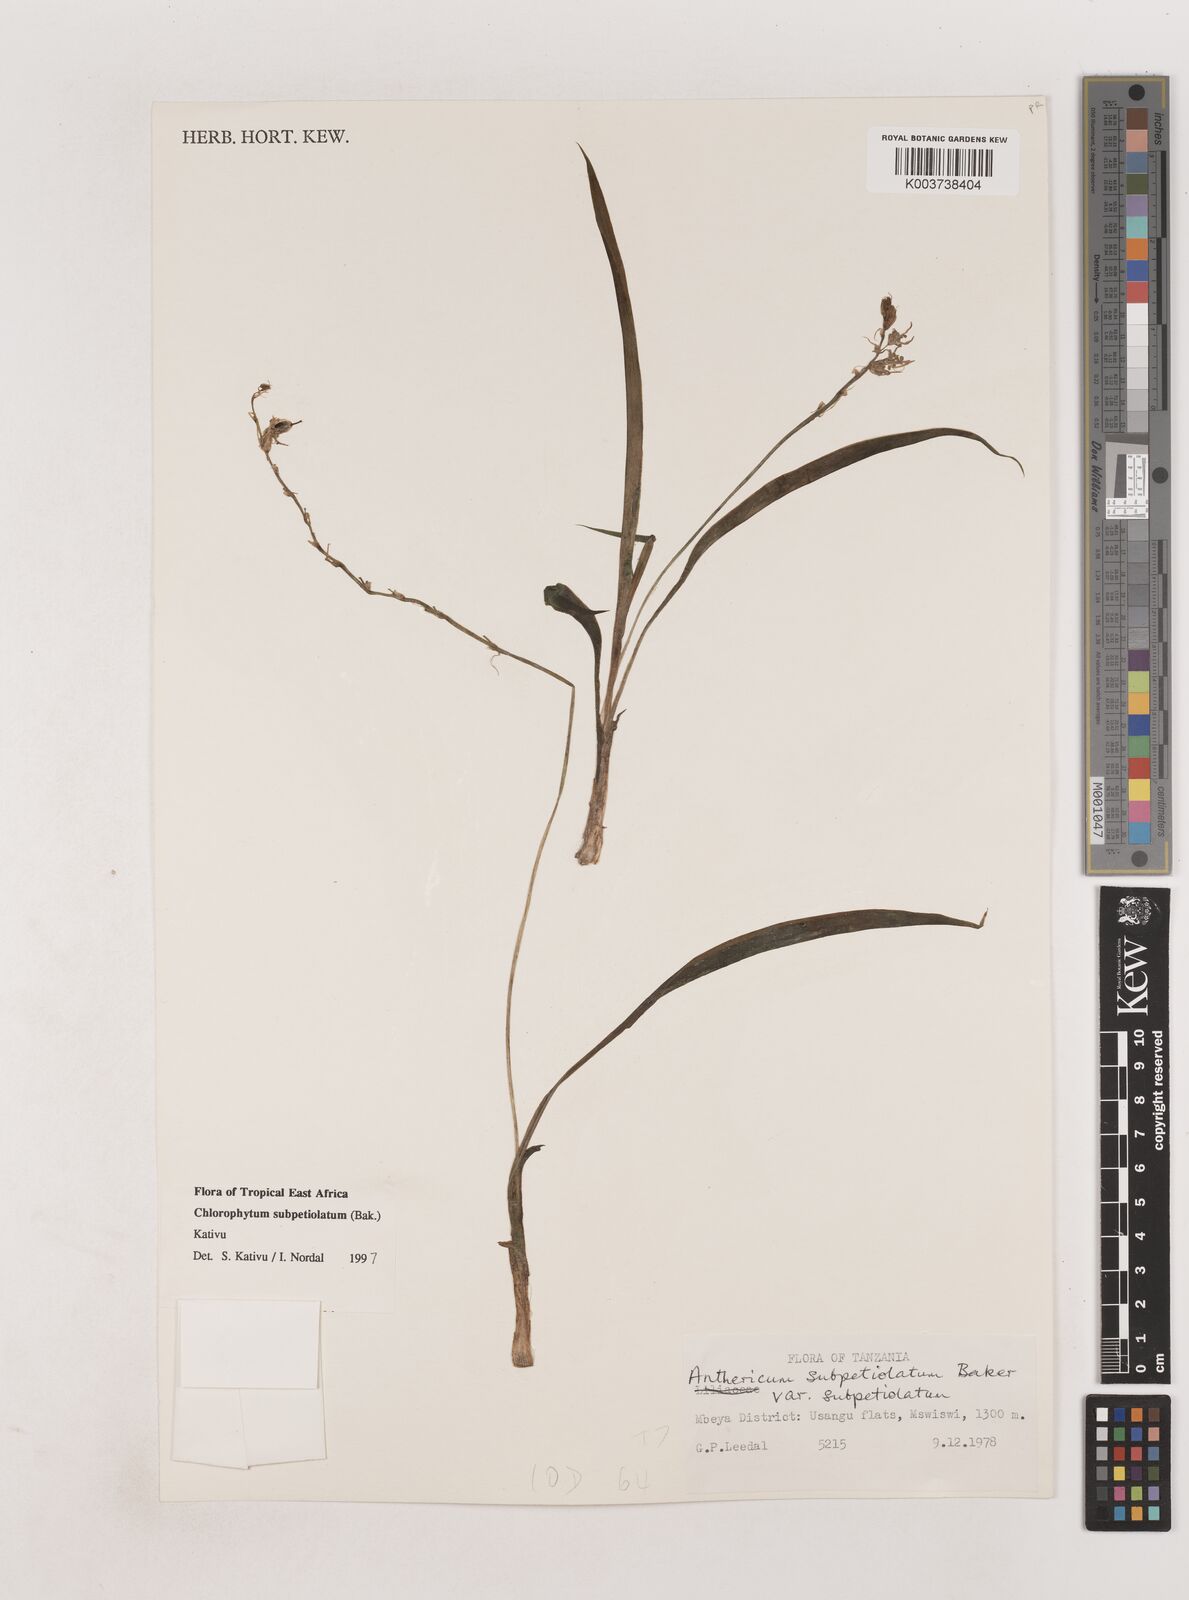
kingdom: Plantae
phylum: Tracheophyta
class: Liliopsida
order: Asparagales
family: Asparagaceae
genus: Chlorophytum
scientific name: Chlorophytum subpetiolatum
